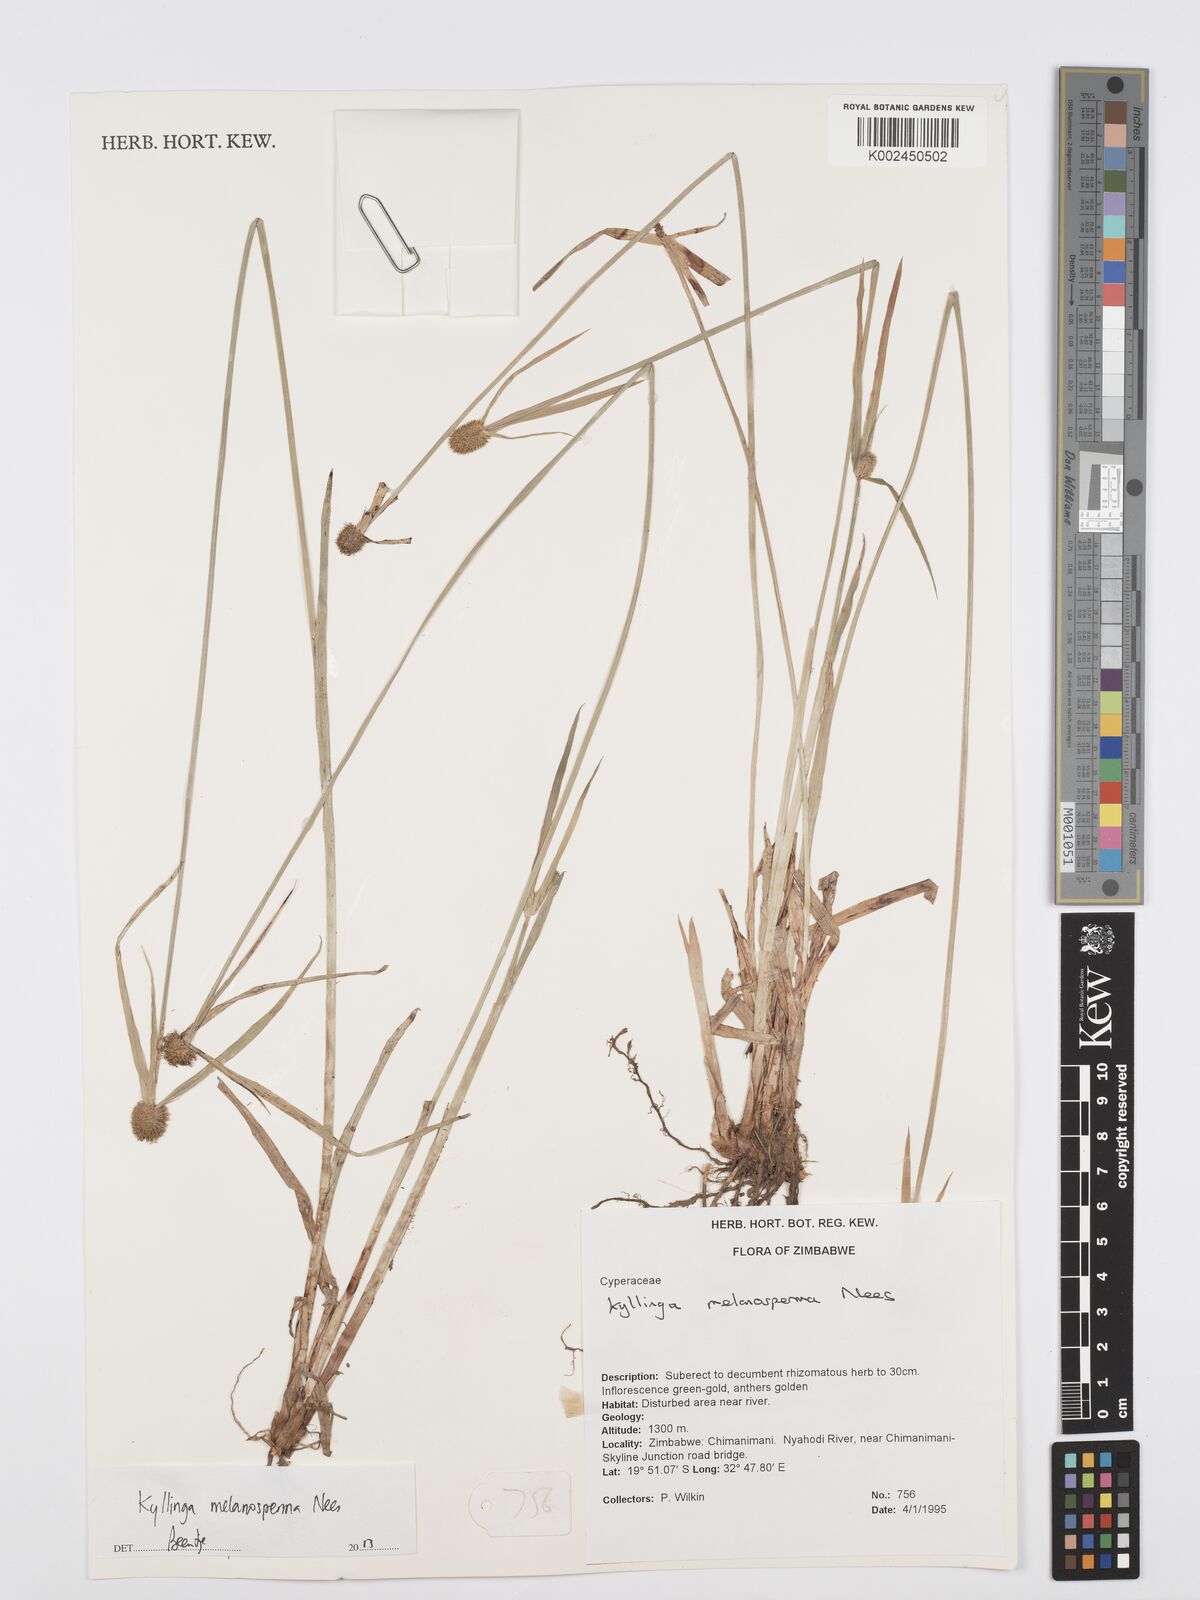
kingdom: Plantae
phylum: Tracheophyta
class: Liliopsida
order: Poales
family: Cyperaceae
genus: Cyperus
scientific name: Cyperus melanospermus
